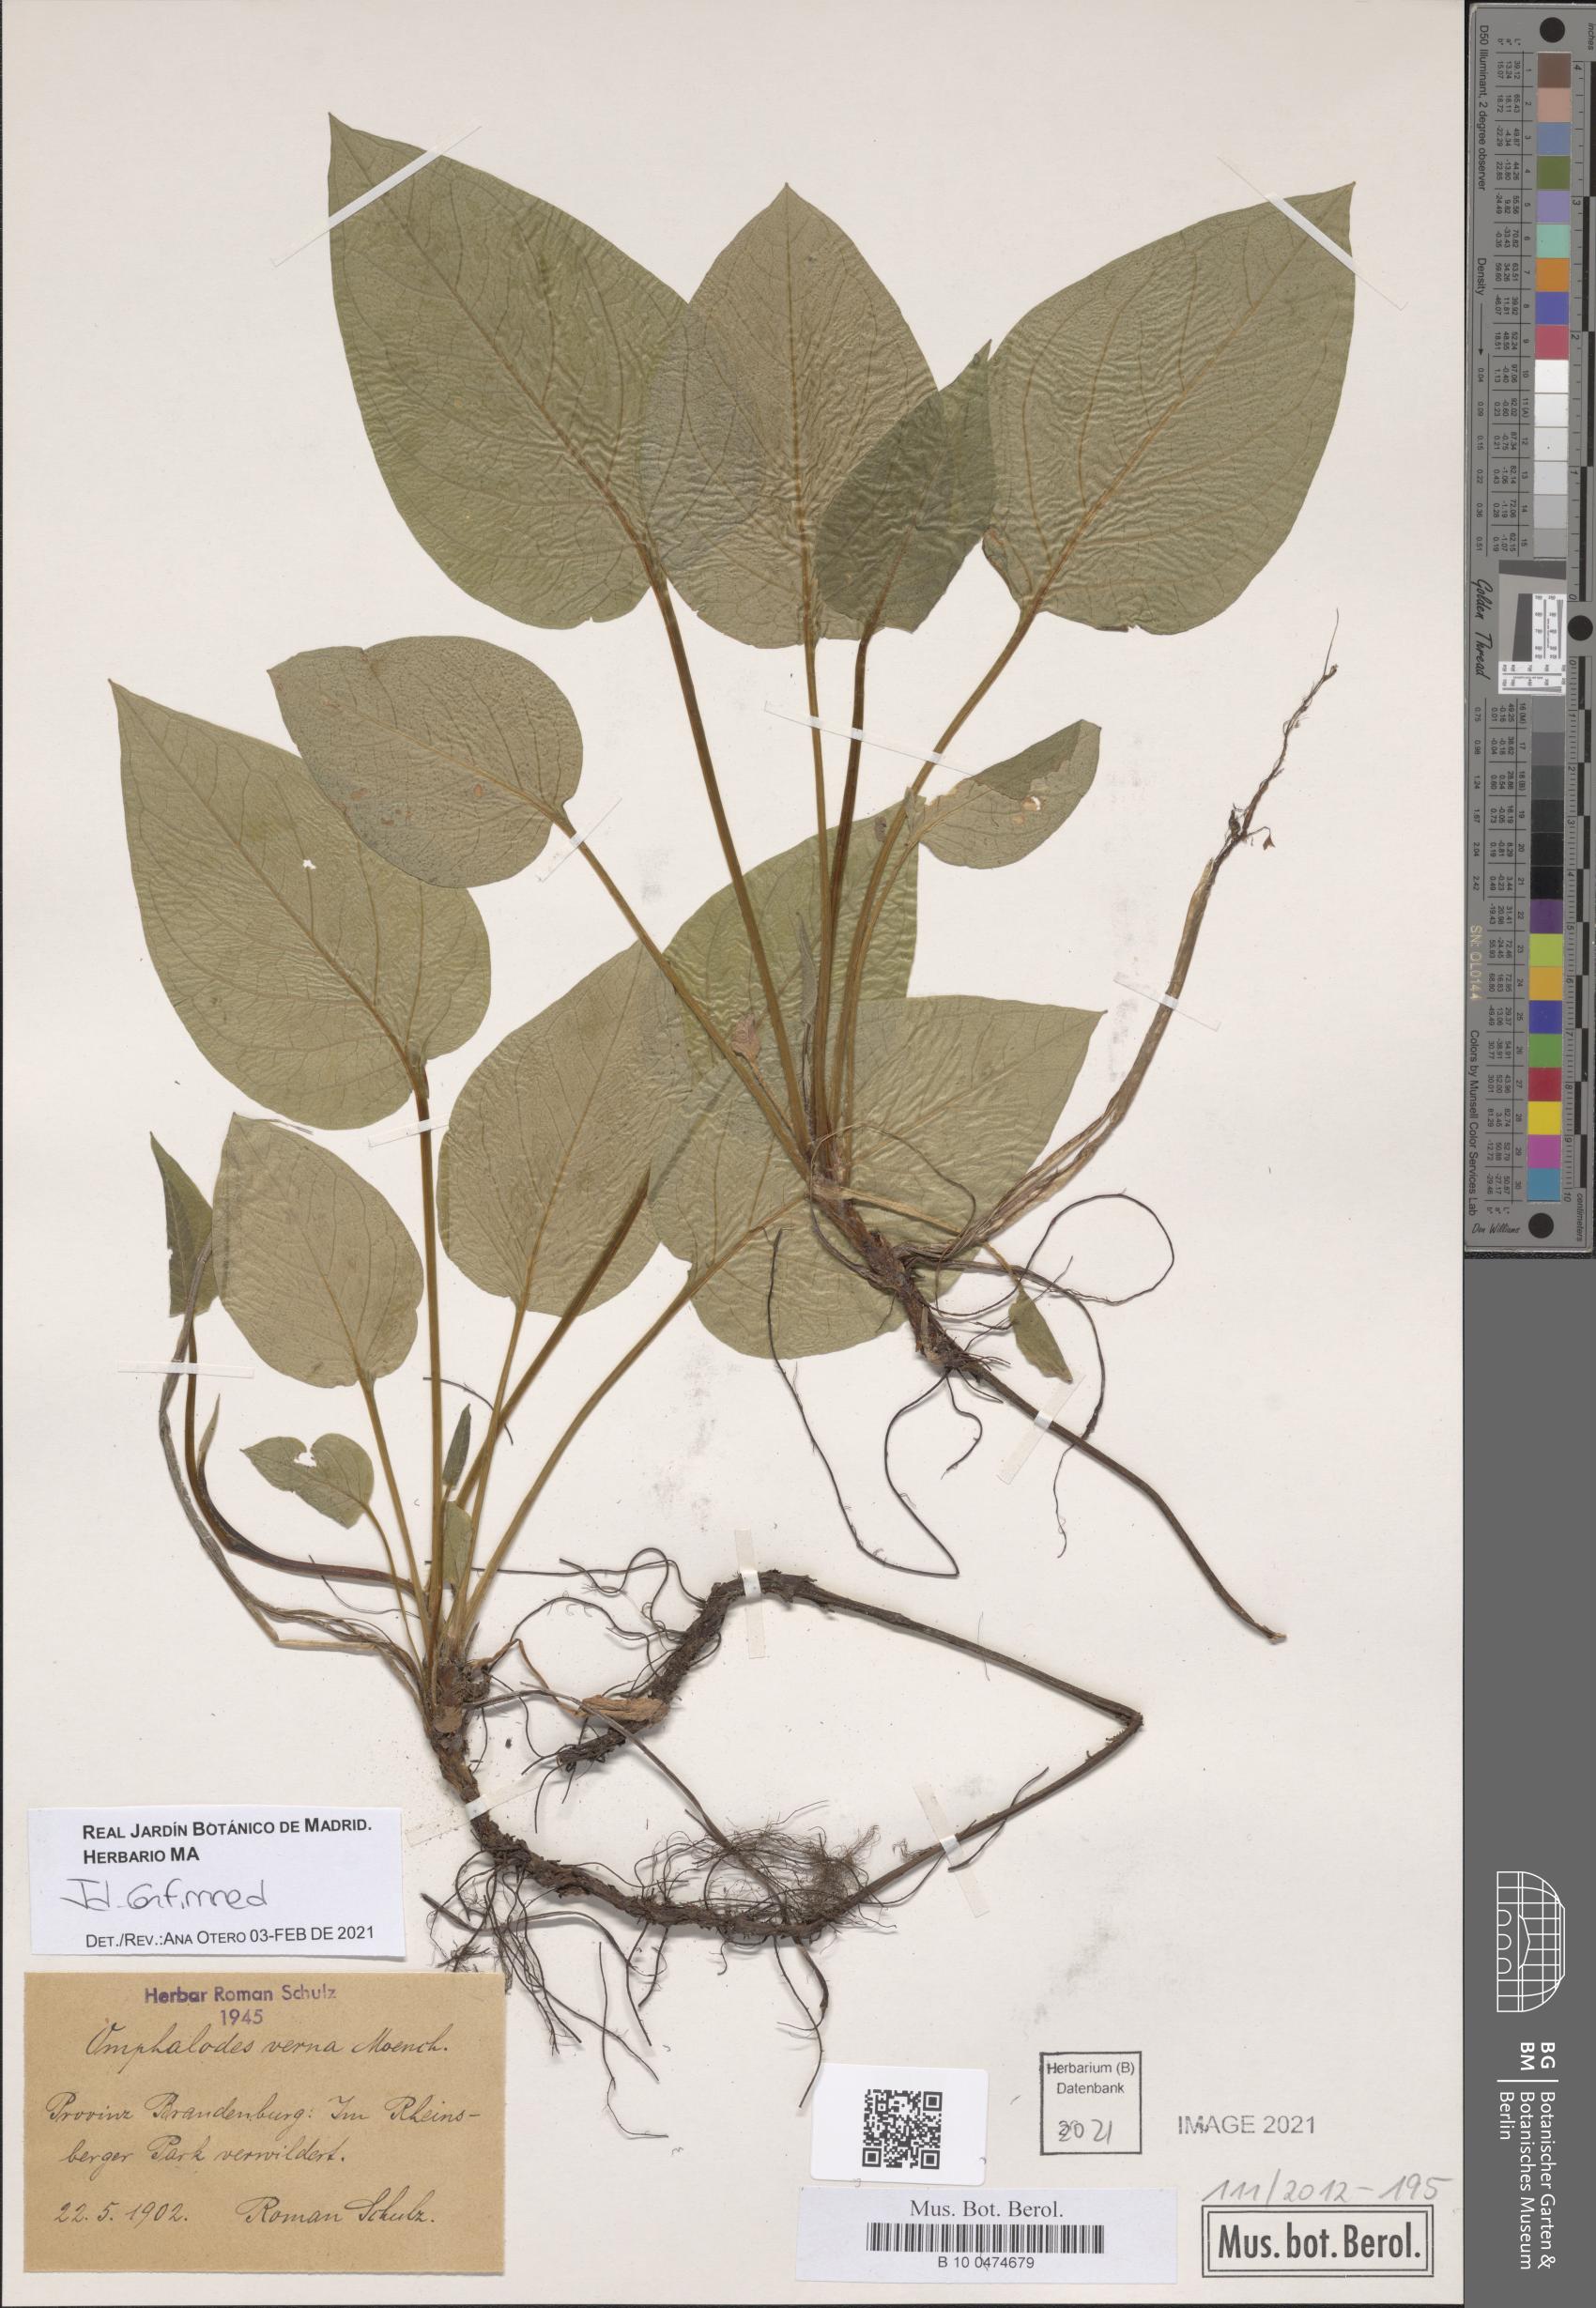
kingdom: Plantae
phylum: Tracheophyta
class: Magnoliopsida
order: Boraginales
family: Boraginaceae
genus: Omphalodes
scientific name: Omphalodes verna
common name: Blue-eyed-mary
